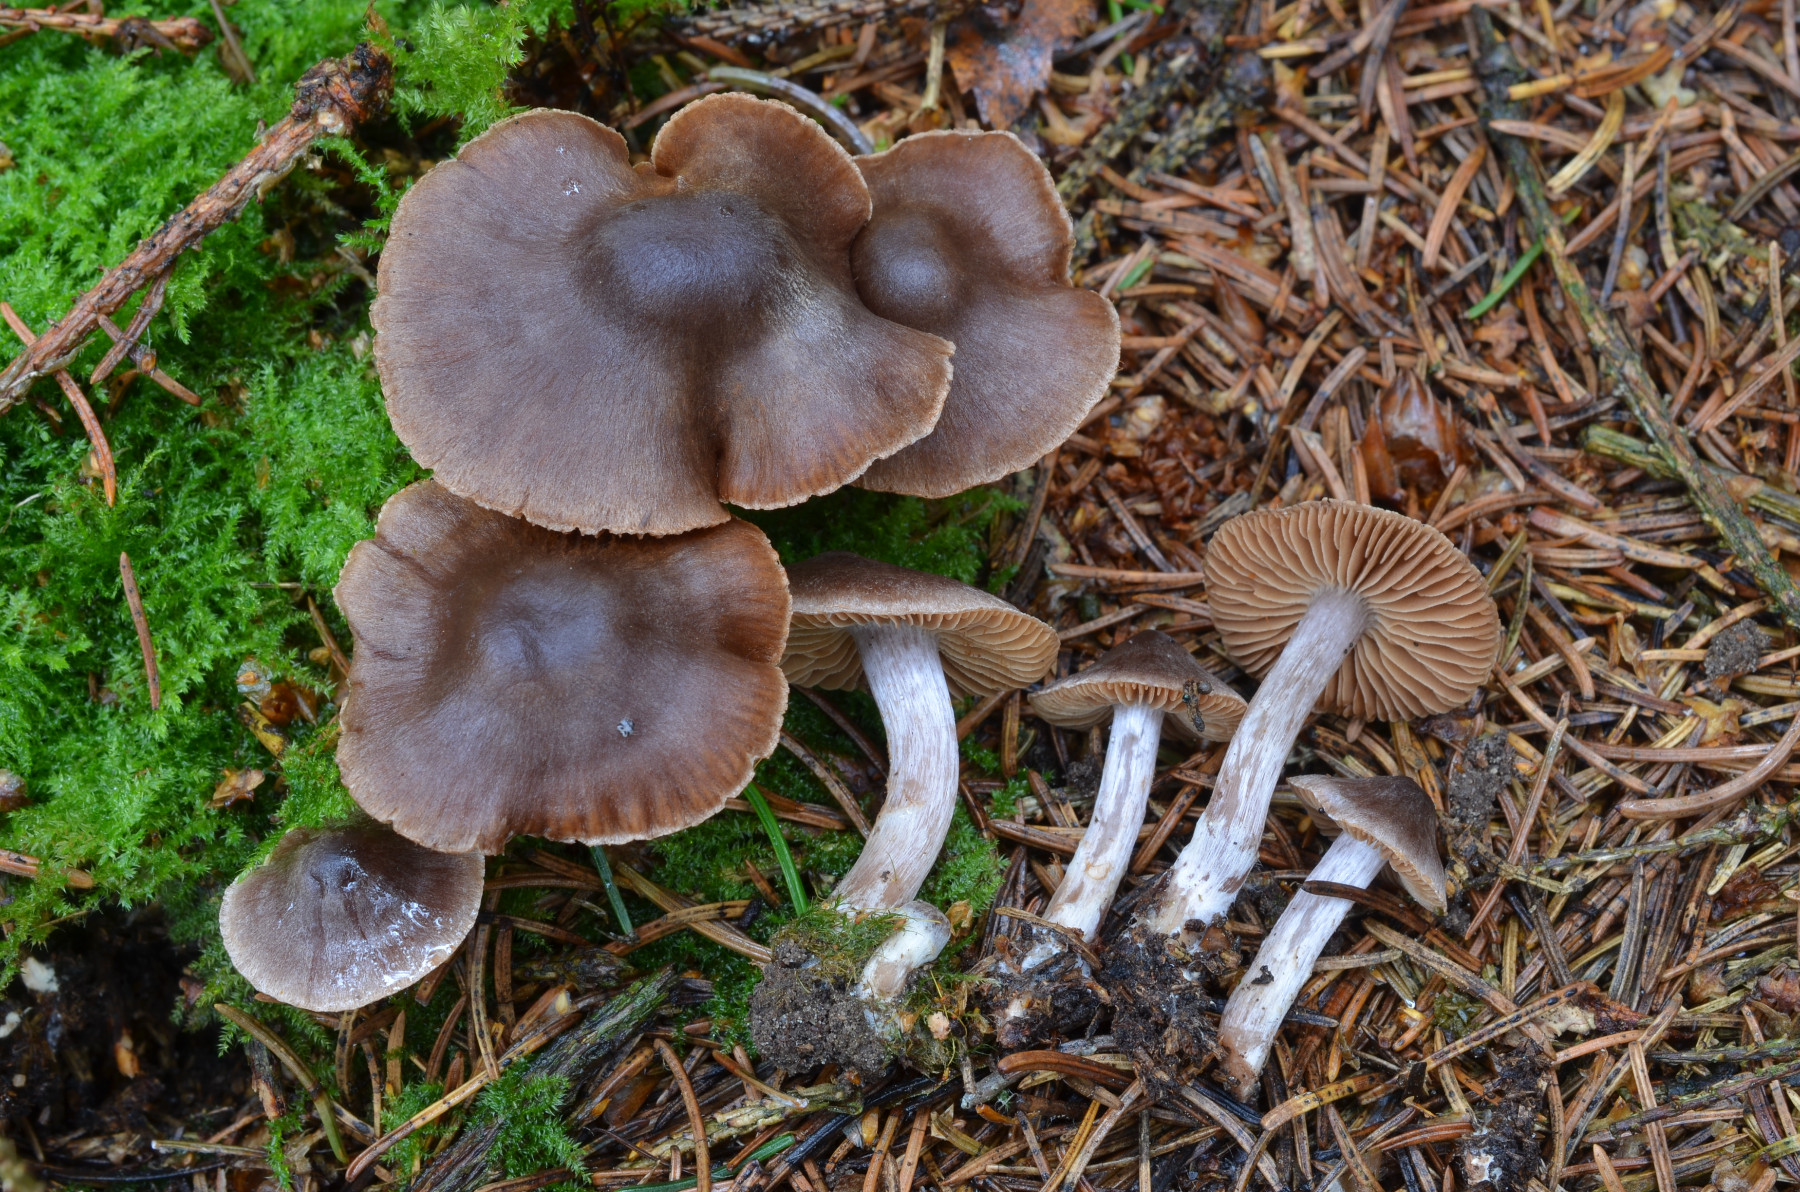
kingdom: Fungi
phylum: Basidiomycota
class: Agaricomycetes
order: Agaricales
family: Cortinariaceae
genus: Cortinarius
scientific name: Cortinarius subobtusobrunneus
